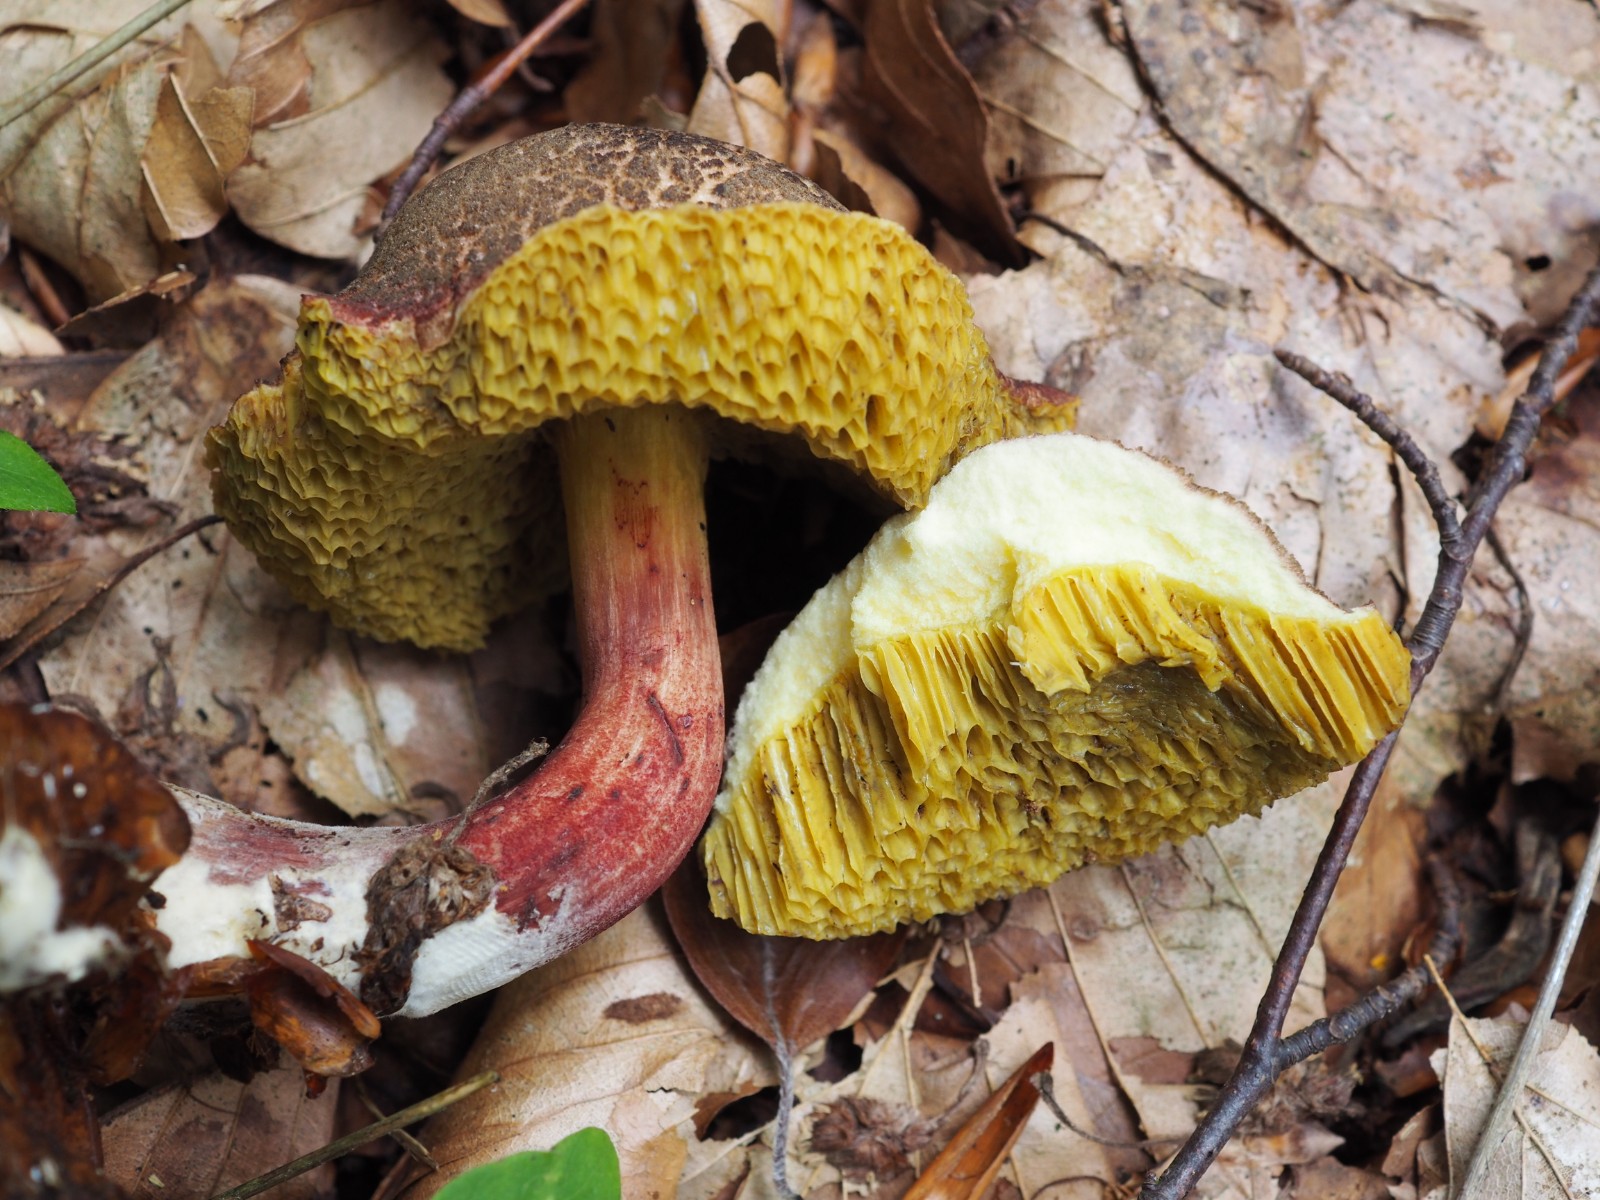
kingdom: Fungi
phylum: Basidiomycota
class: Agaricomycetes
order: Boletales
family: Boletaceae
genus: Xerocomellus
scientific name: Xerocomellus chrysenteron
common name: rødsprukken rørhat
